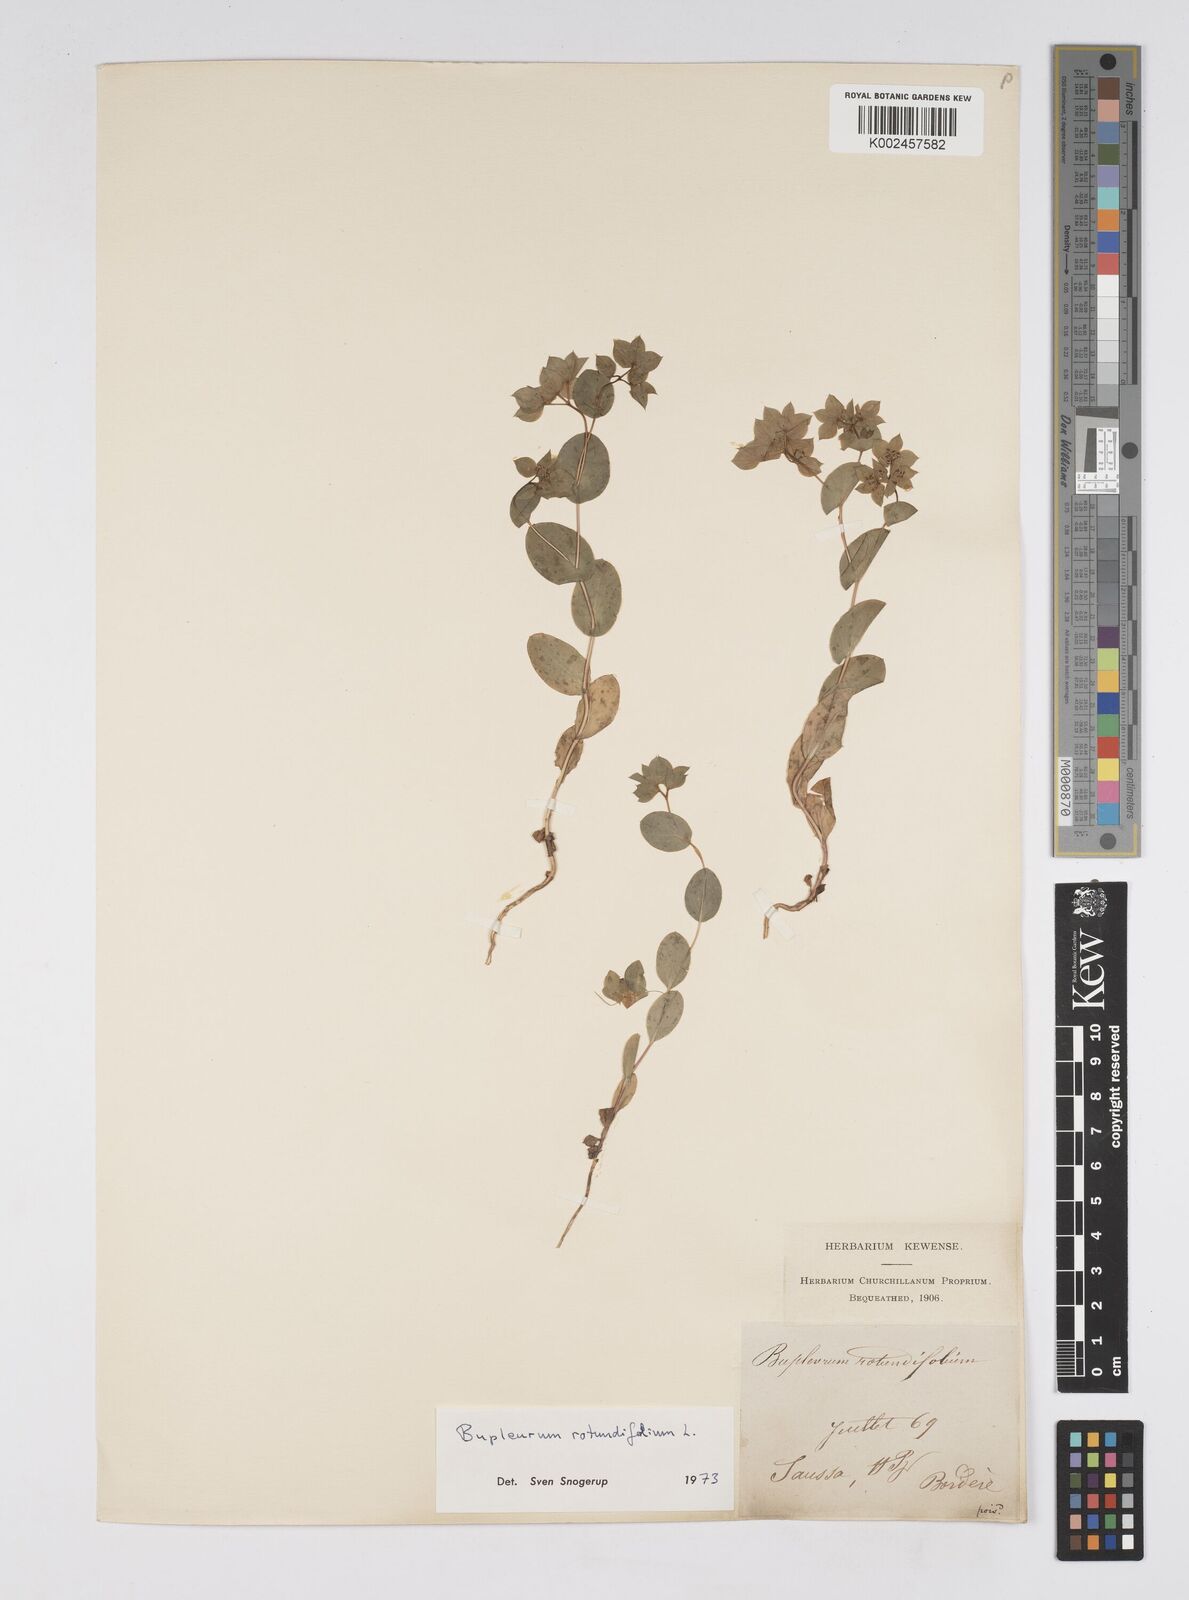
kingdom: Plantae
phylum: Tracheophyta
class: Magnoliopsida
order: Apiales
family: Apiaceae
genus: Bupleurum
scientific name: Bupleurum rotundifolium
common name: Thorow-wax
